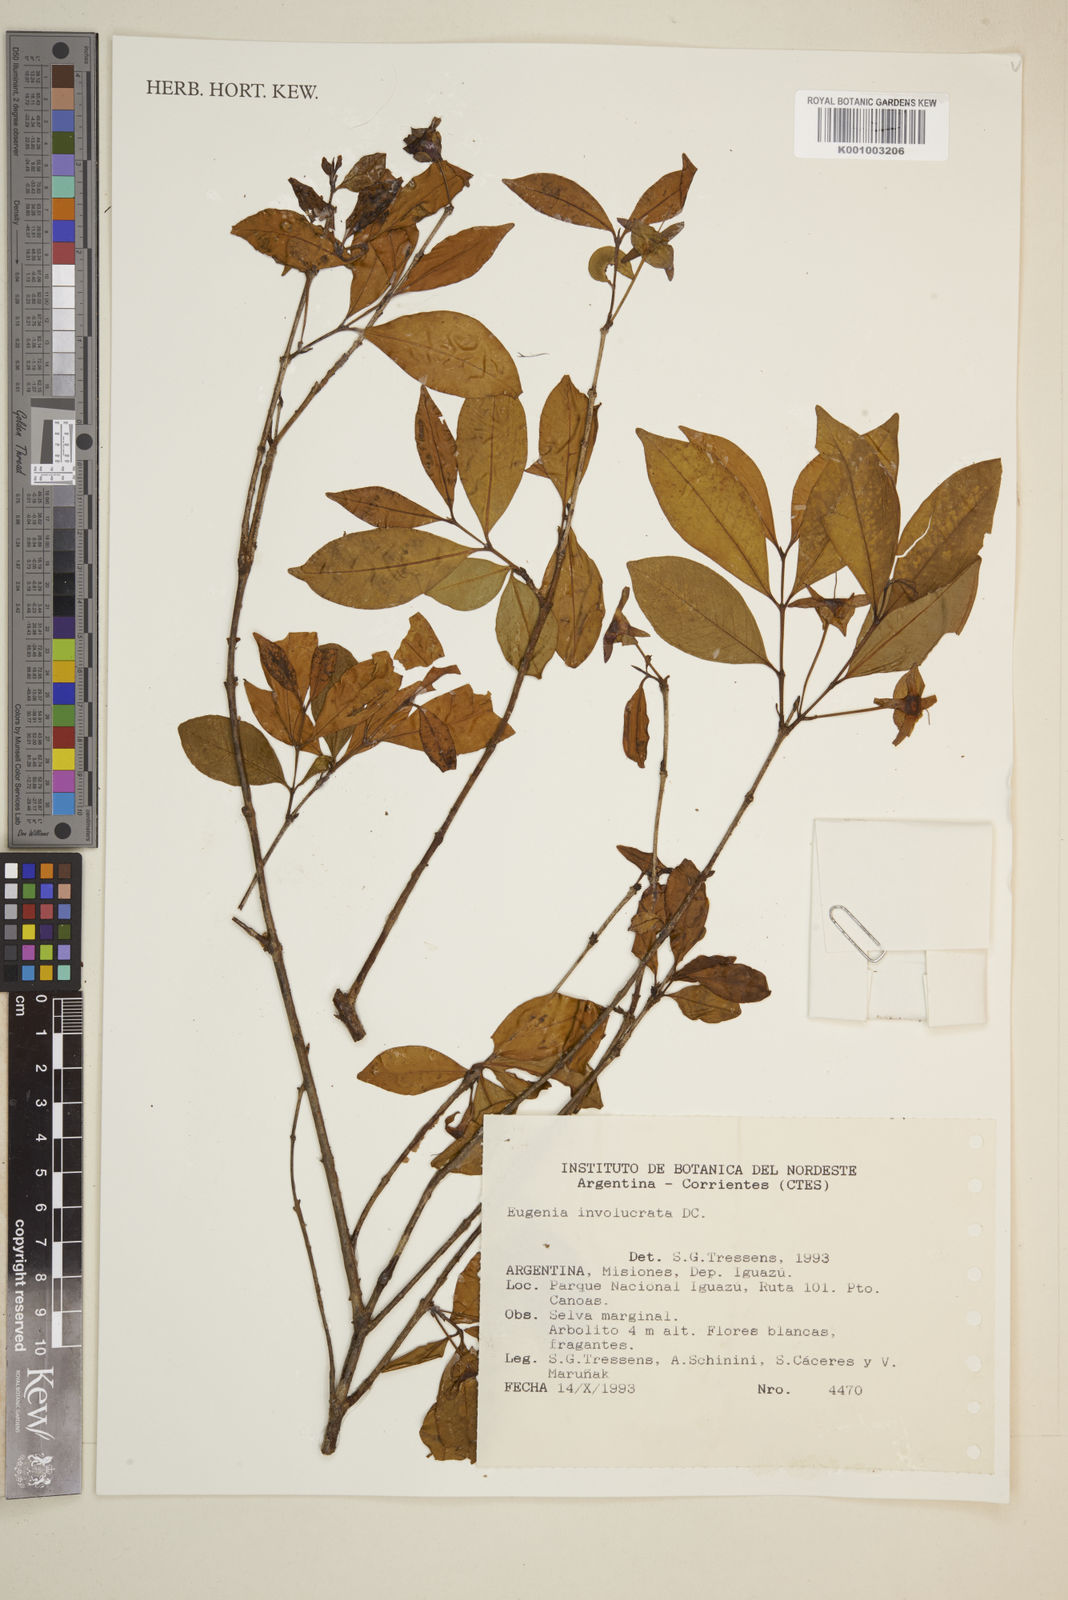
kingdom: Plantae
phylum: Tracheophyta
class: Magnoliopsida
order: Myrtales
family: Myrtaceae
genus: Eugenia
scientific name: Eugenia involucrata
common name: Cherry-of-the-rio grande
